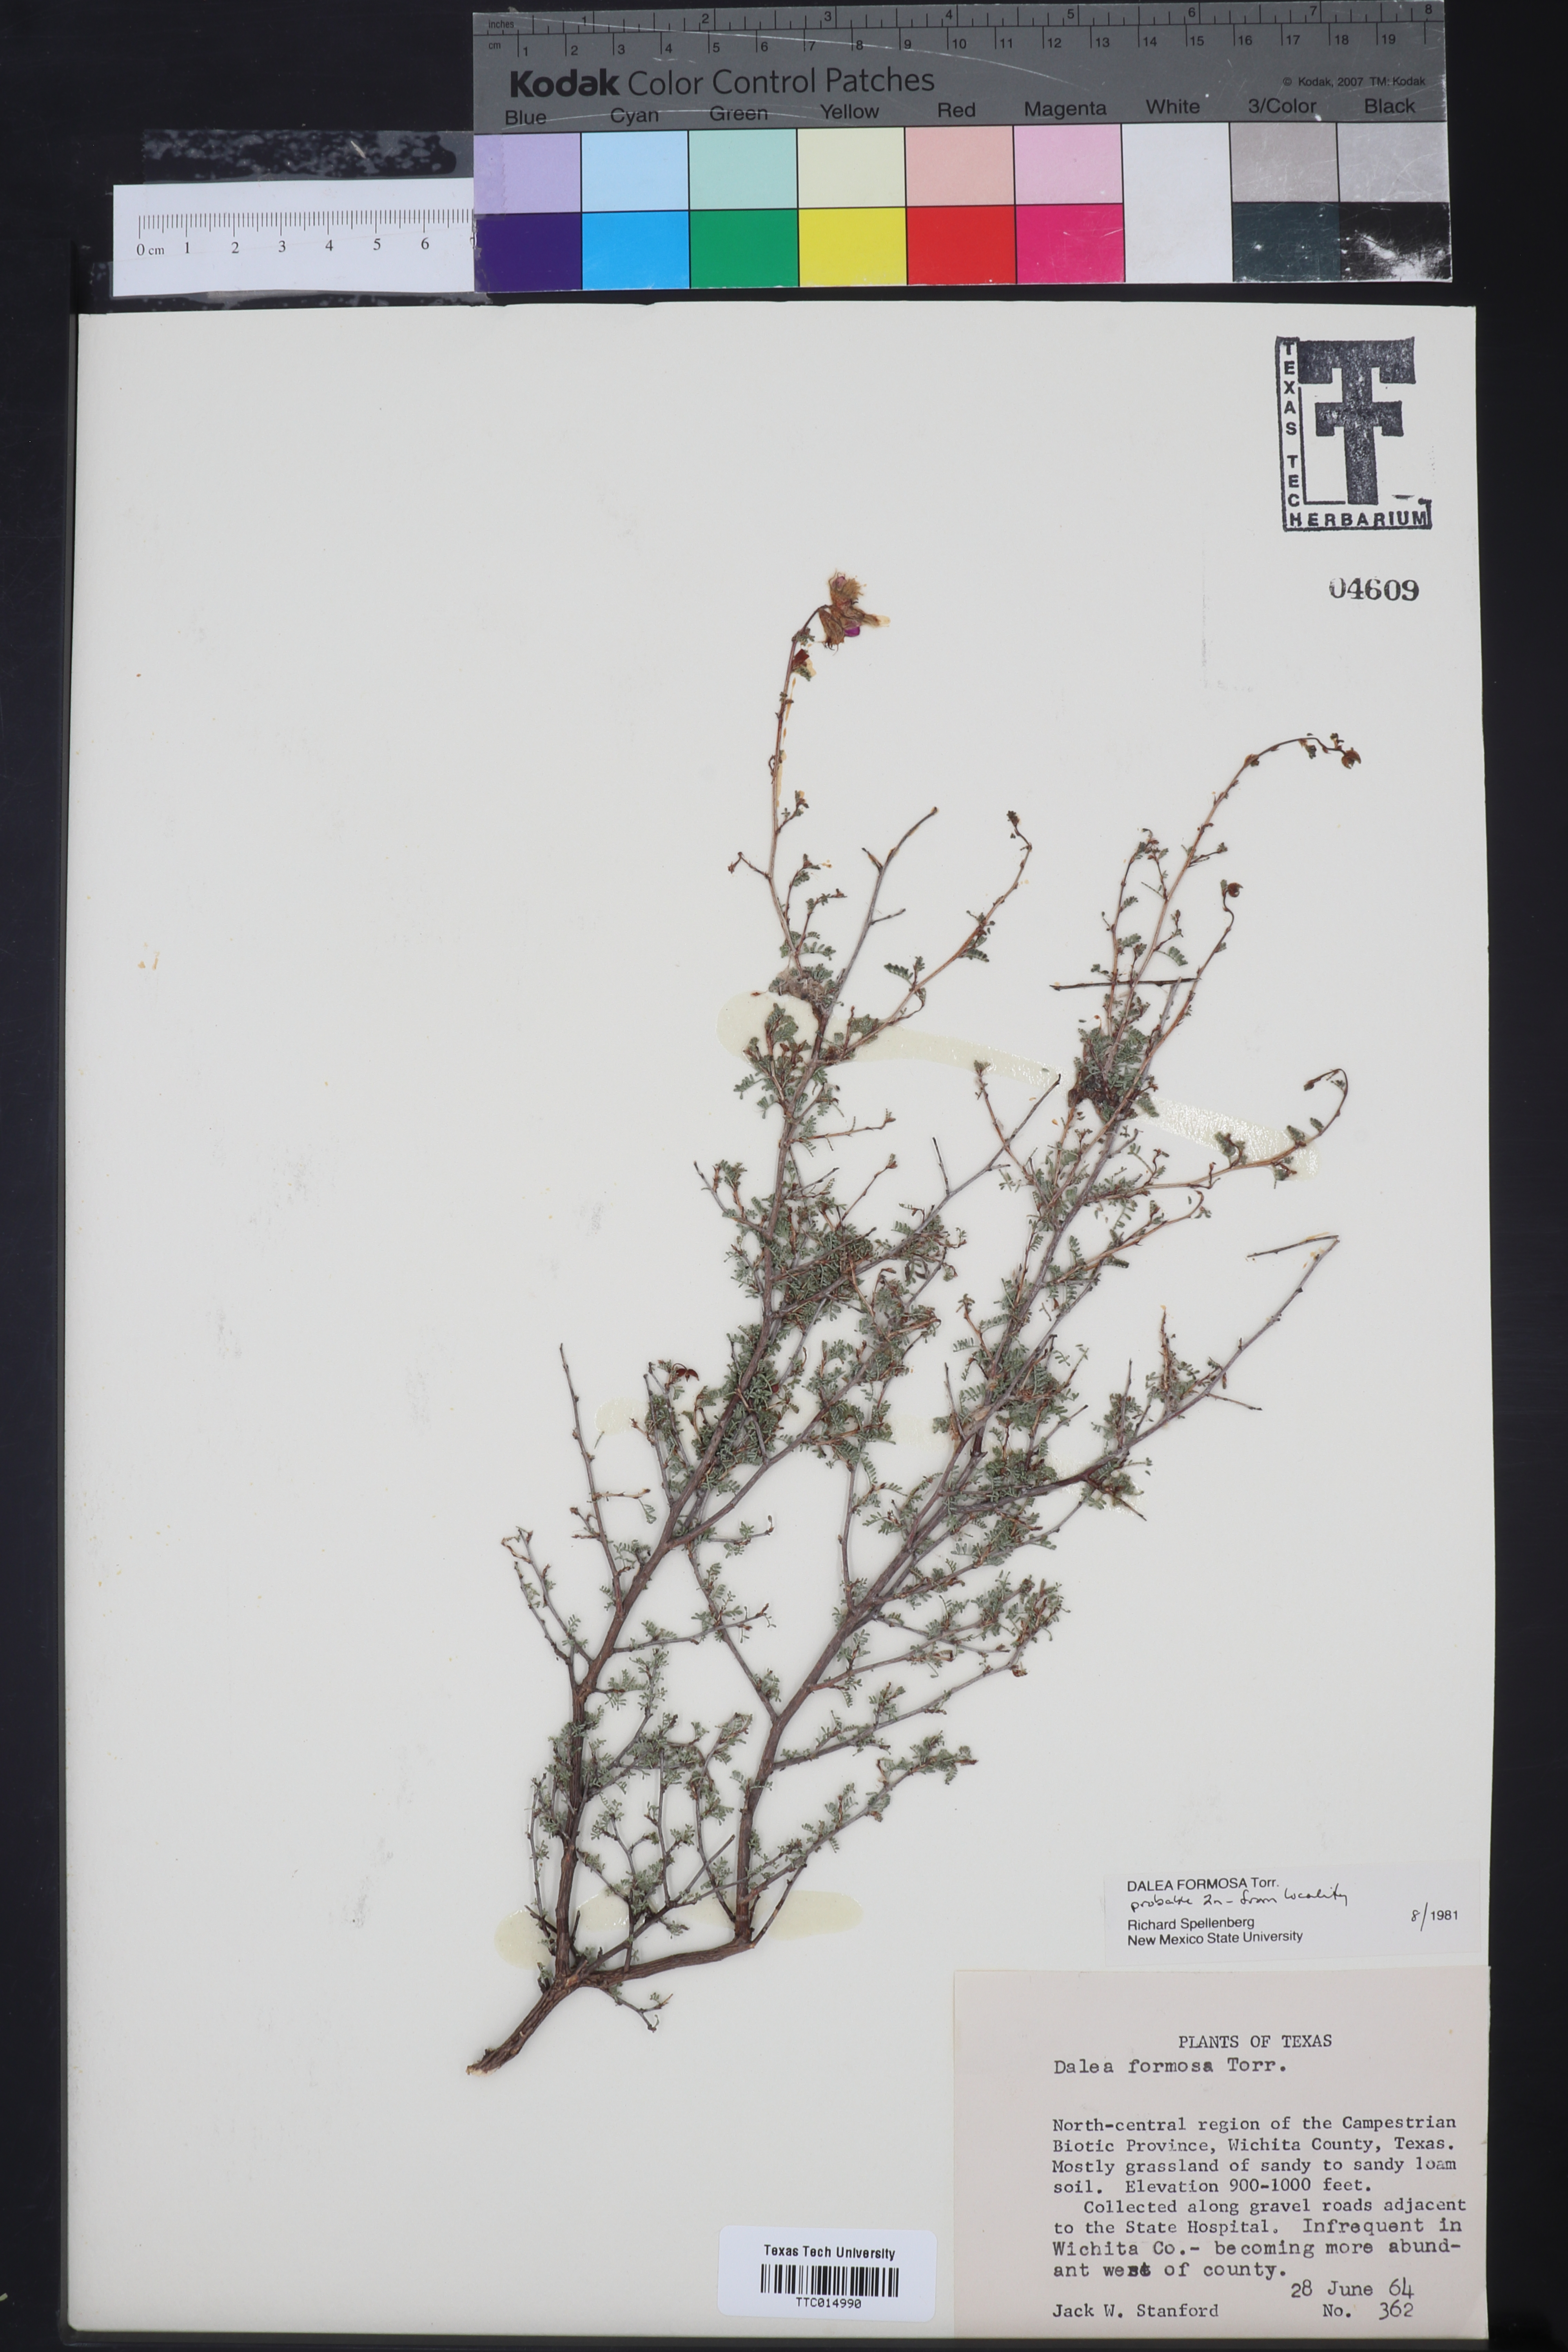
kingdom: Plantae
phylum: Tracheophyta
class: Magnoliopsida
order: Fabales
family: Fabaceae
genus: Dalea
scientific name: Dalea formosa
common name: Feather-plume dalea
